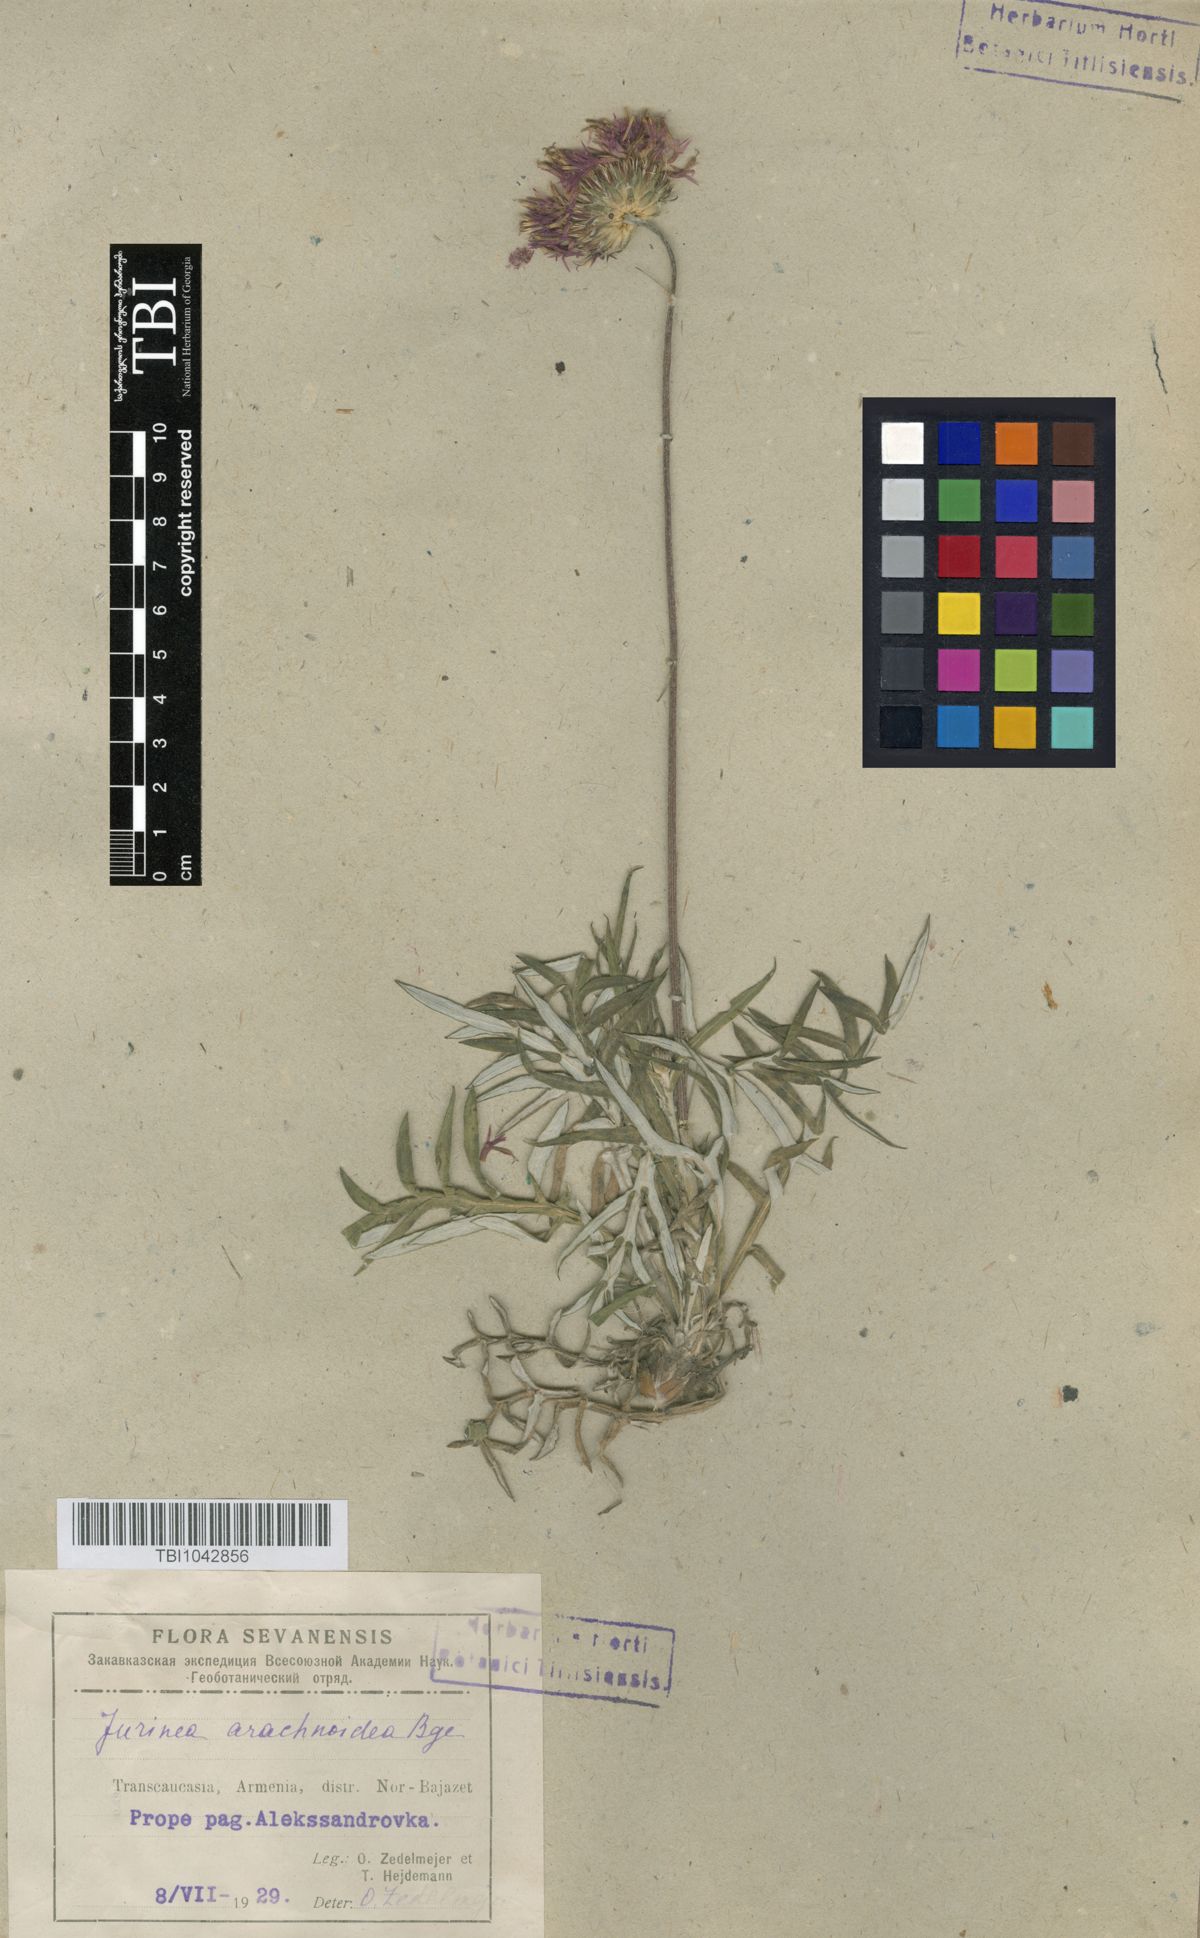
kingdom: Plantae
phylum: Tracheophyta
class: Magnoliopsida
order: Asterales
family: Asteraceae
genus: Jurinea
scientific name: Jurinea blanda
